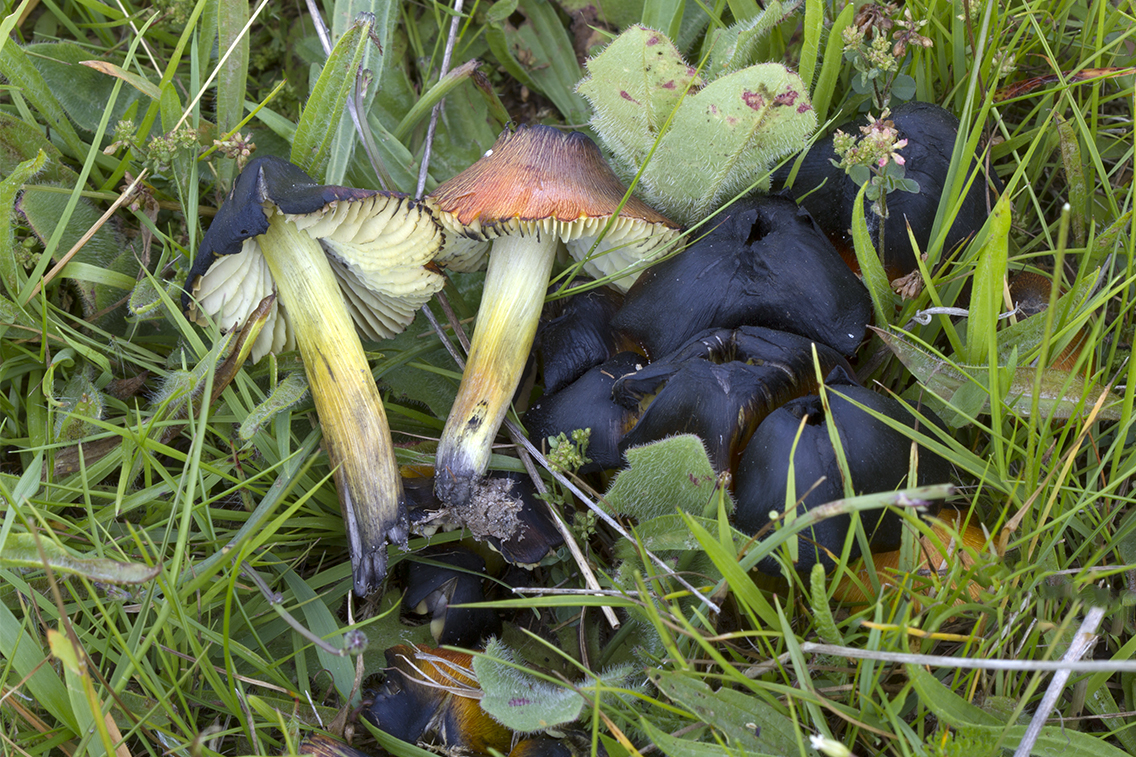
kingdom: Fungi
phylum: Basidiomycota
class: Agaricomycetes
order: Agaricales
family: Hygrophoraceae
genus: Hygrocybe
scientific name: Hygrocybe conica
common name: kegle-vokshat
